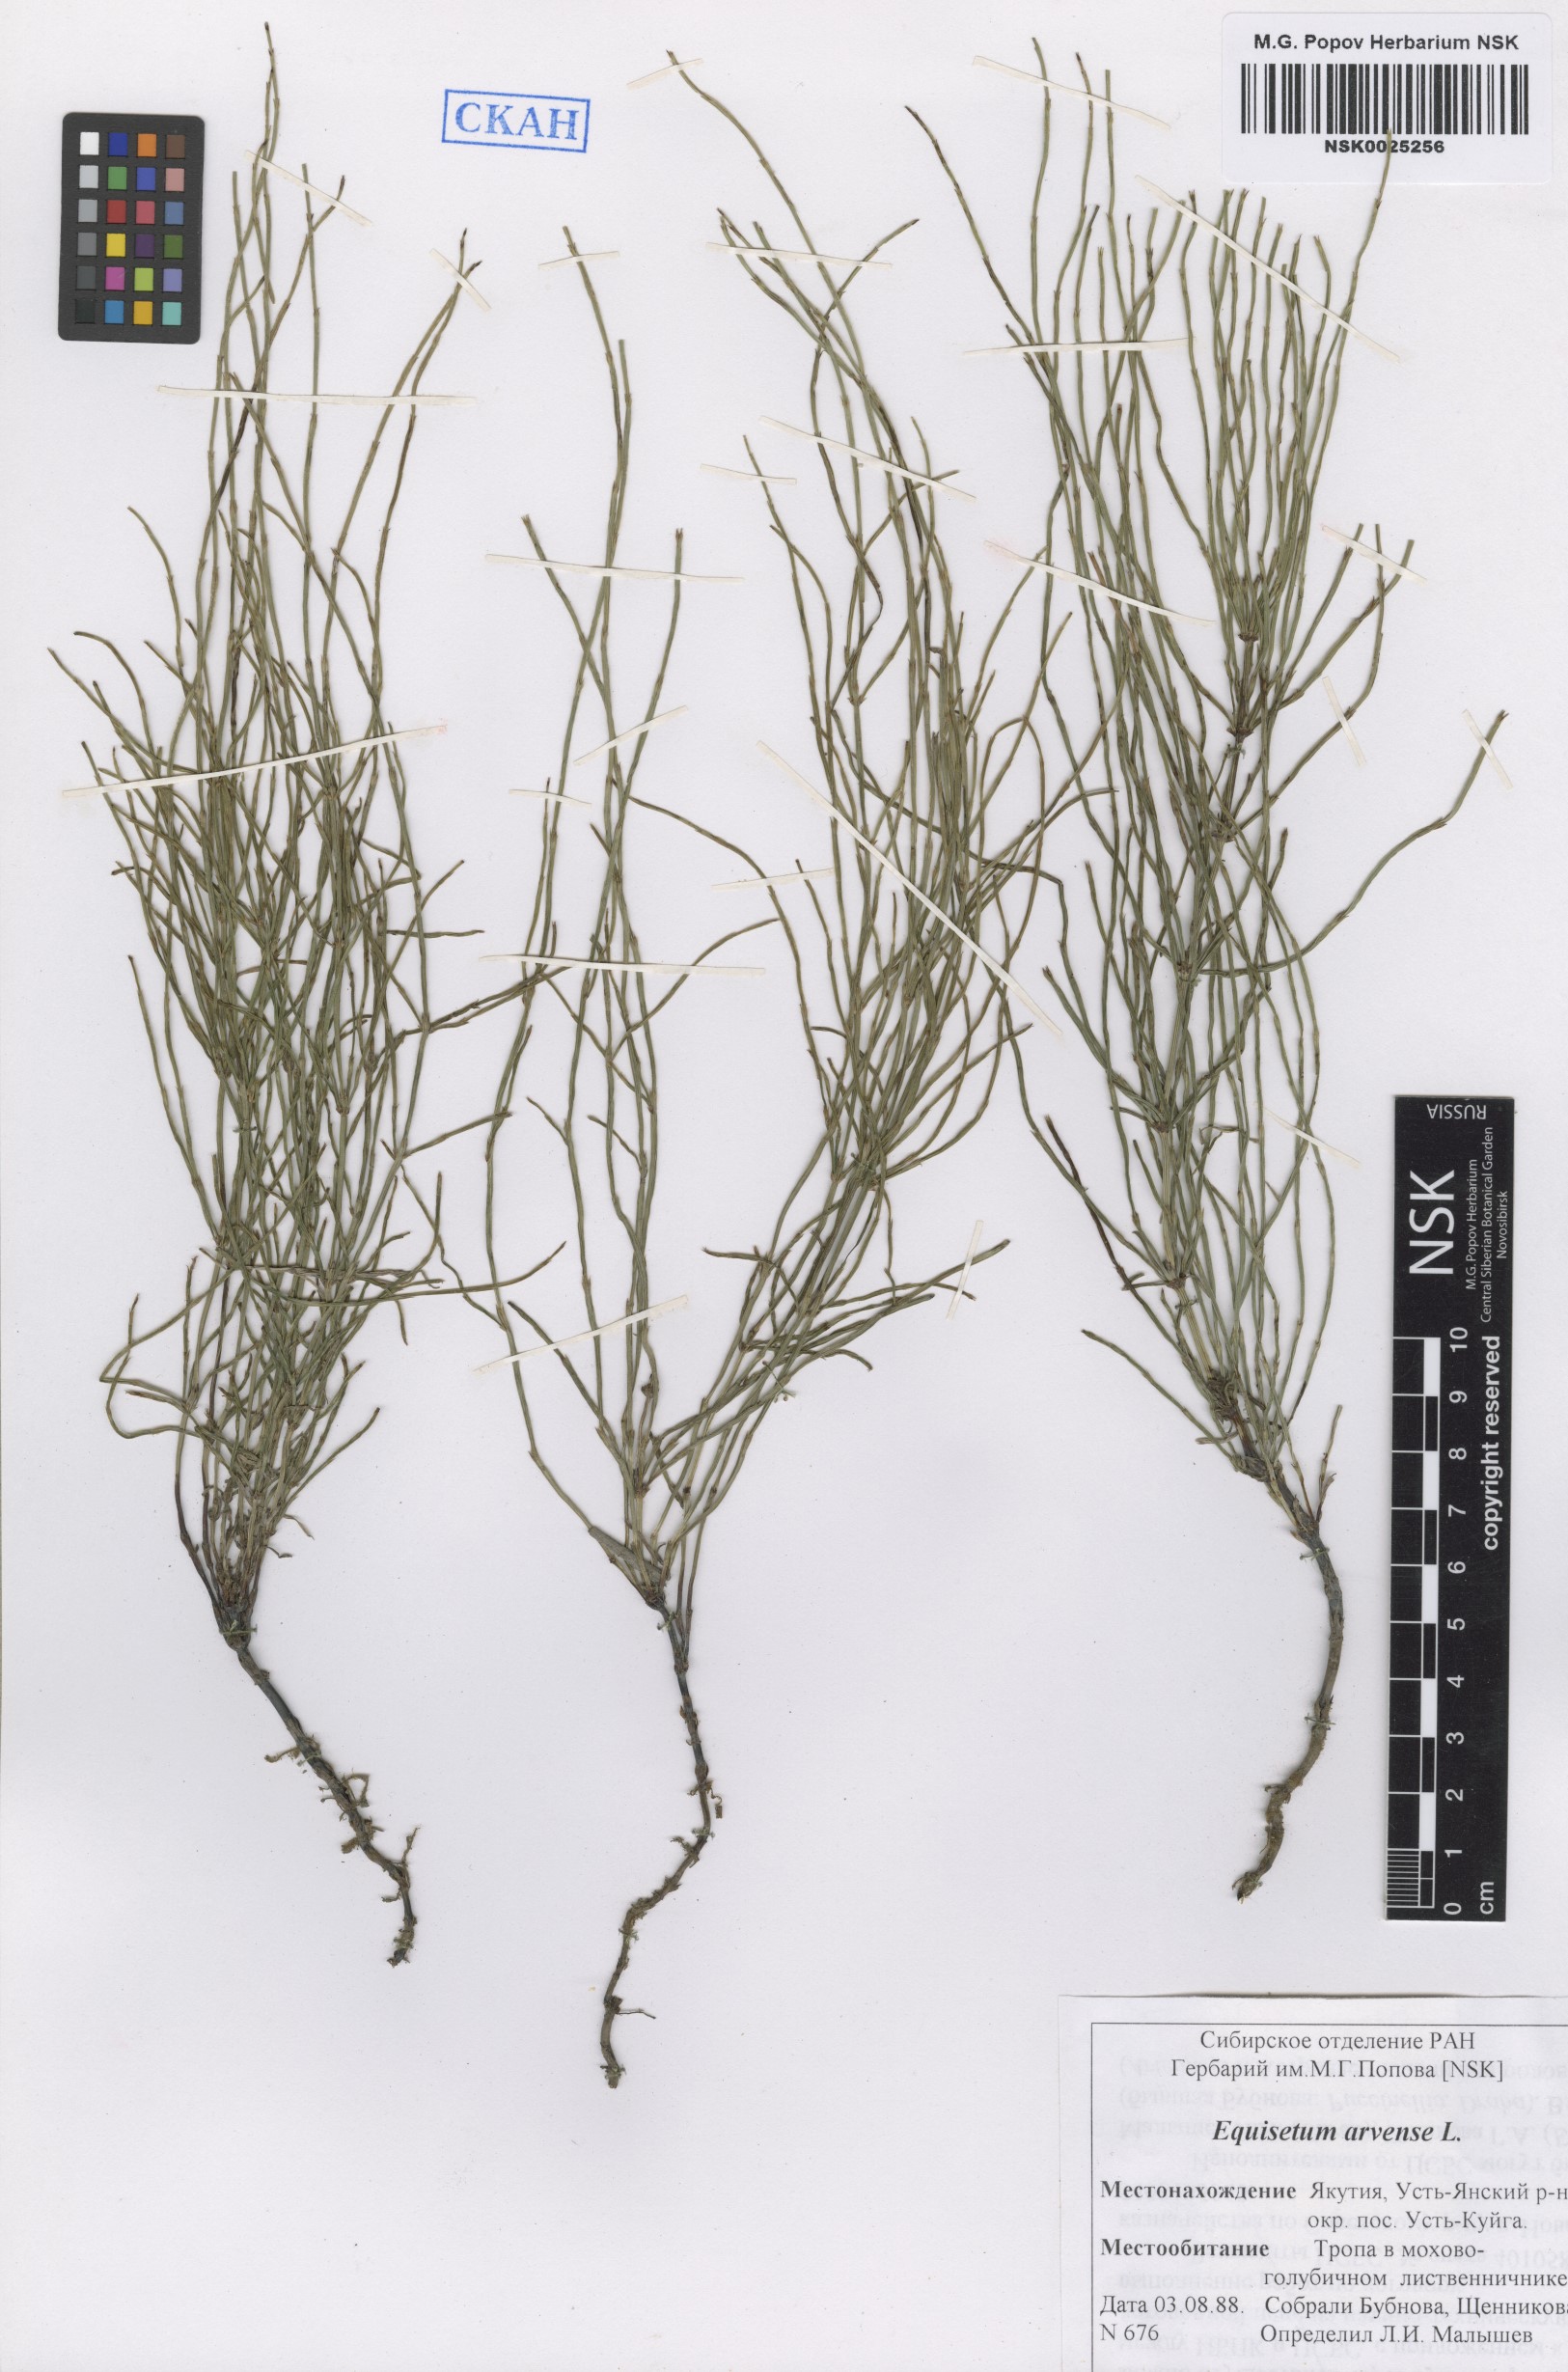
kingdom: Plantae
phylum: Tracheophyta
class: Polypodiopsida
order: Equisetales
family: Equisetaceae
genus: Equisetum
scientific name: Equisetum arvense
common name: Field horsetail
